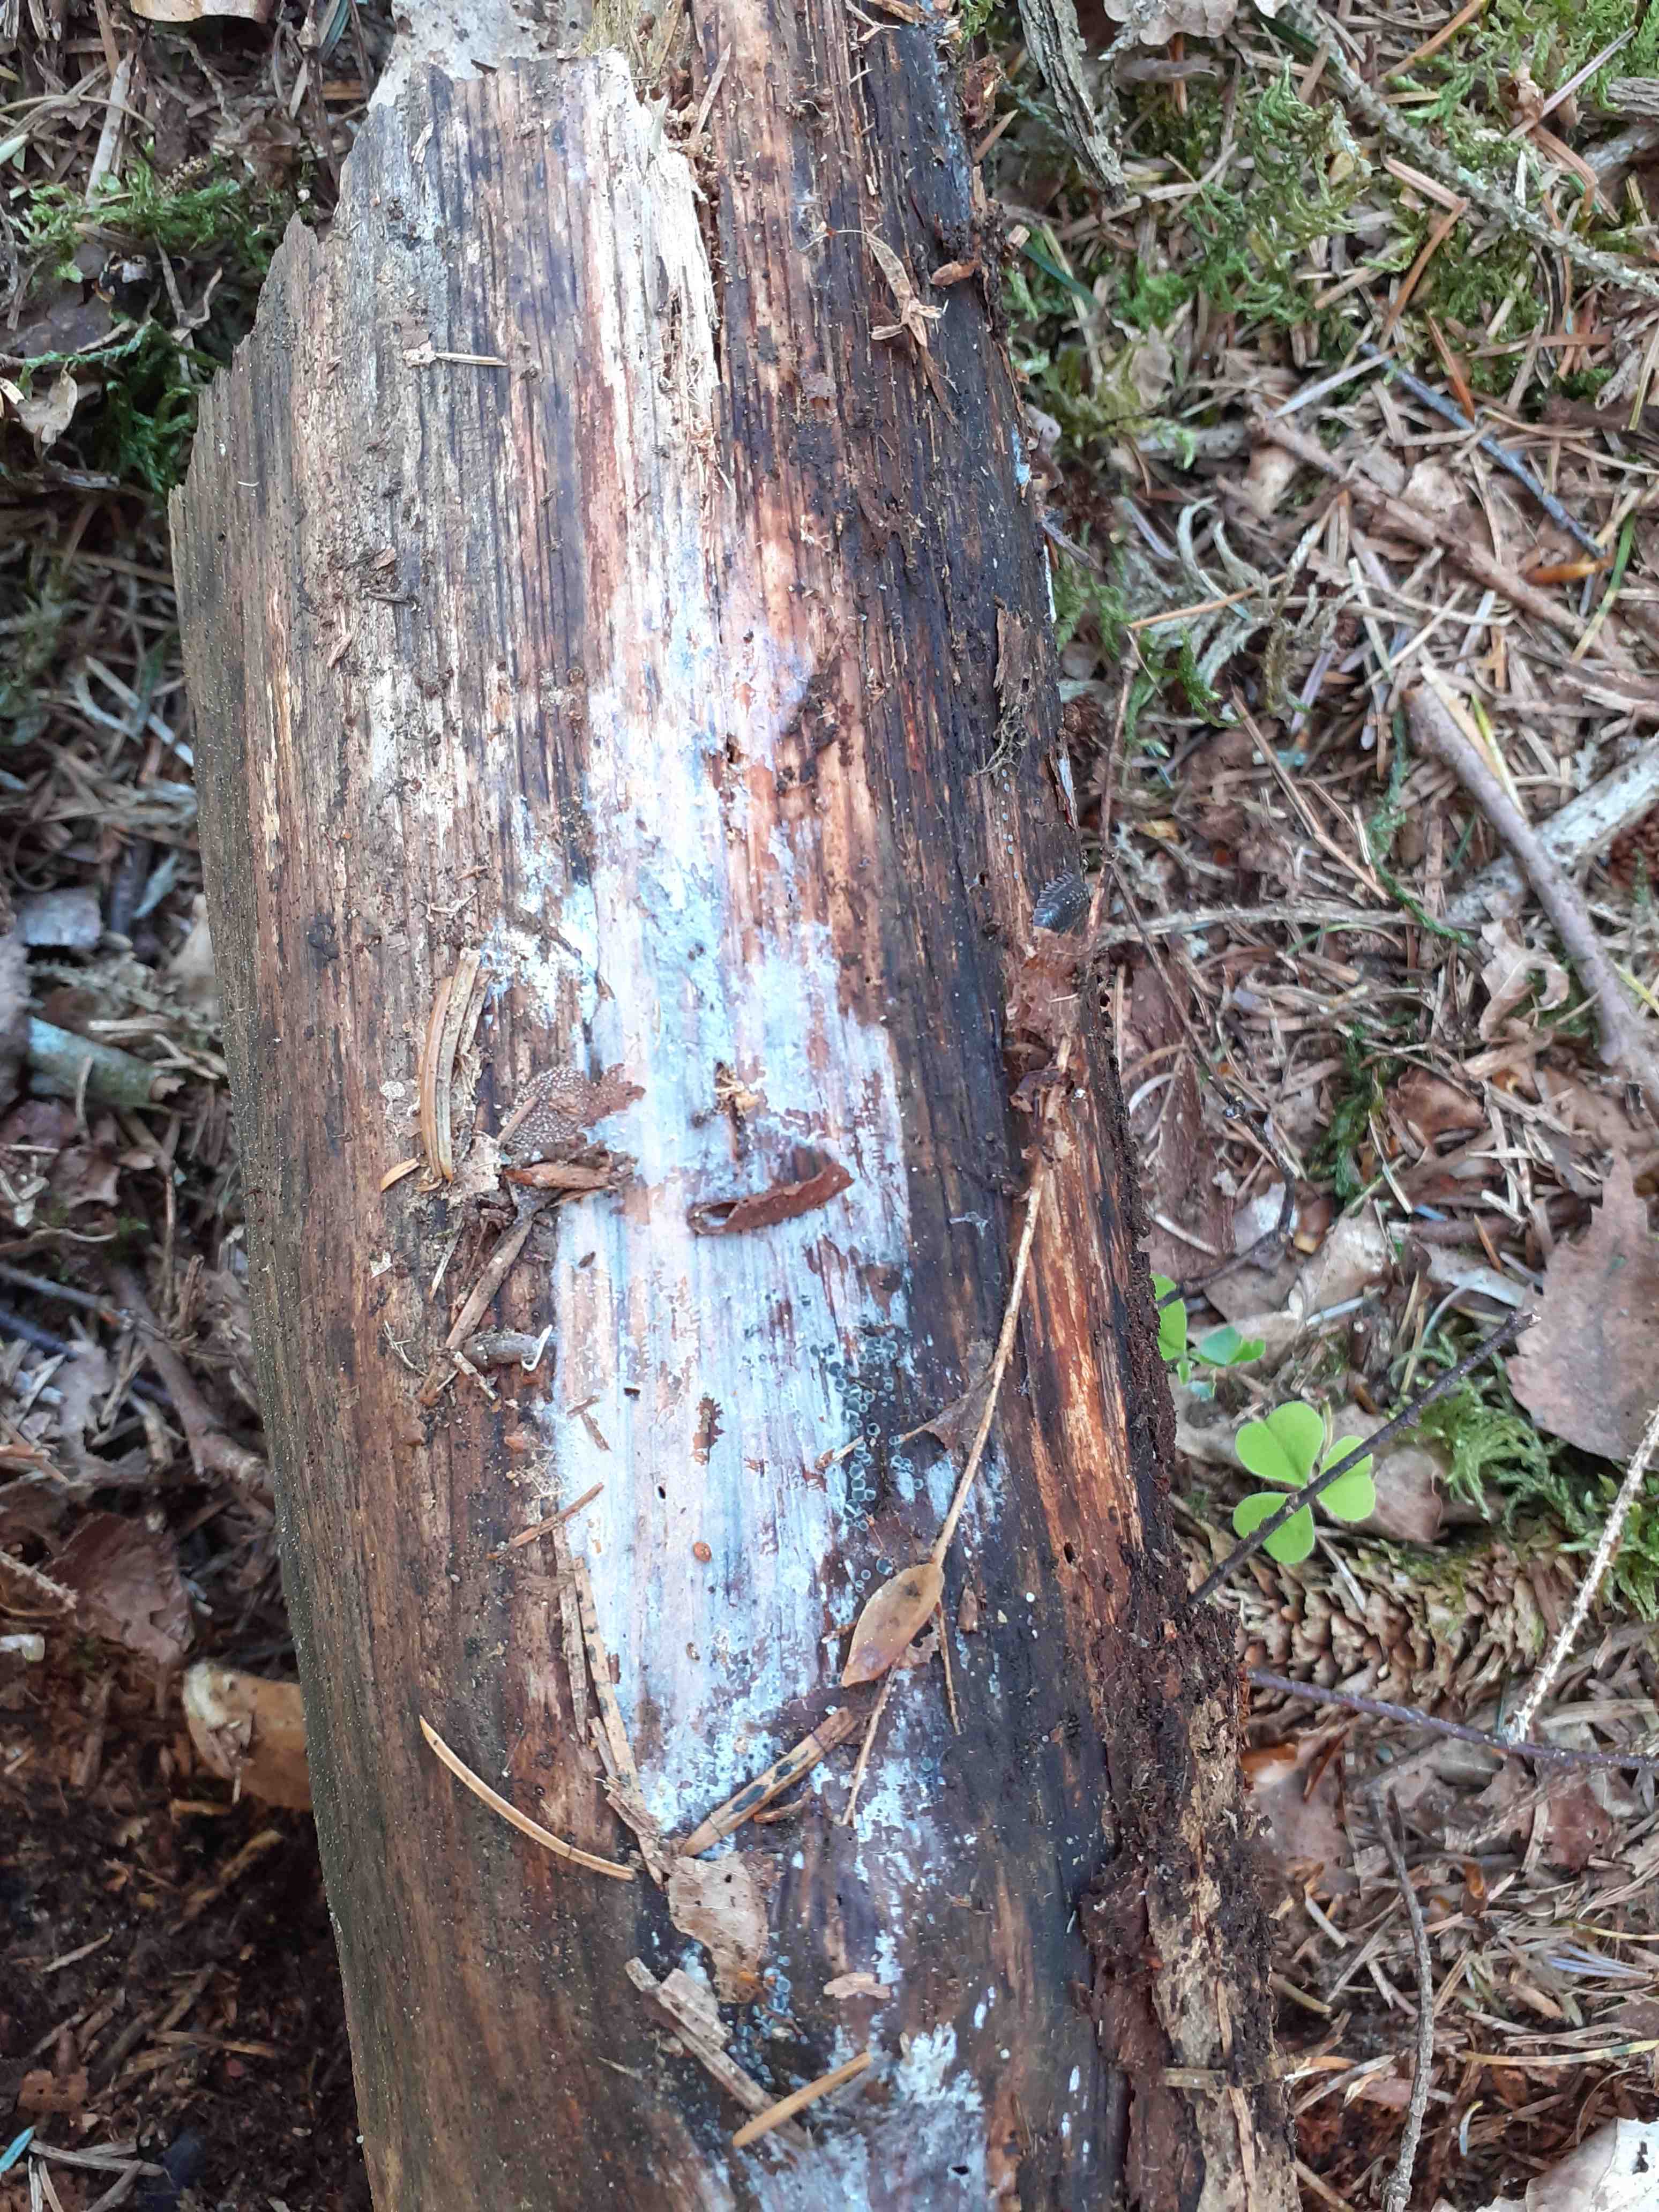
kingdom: Fungi
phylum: Basidiomycota
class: Tremellomycetes
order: Tremellales
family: Exidiaceae
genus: Exidiopsis
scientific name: Exidiopsis effusa
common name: smuk bævrehinde
